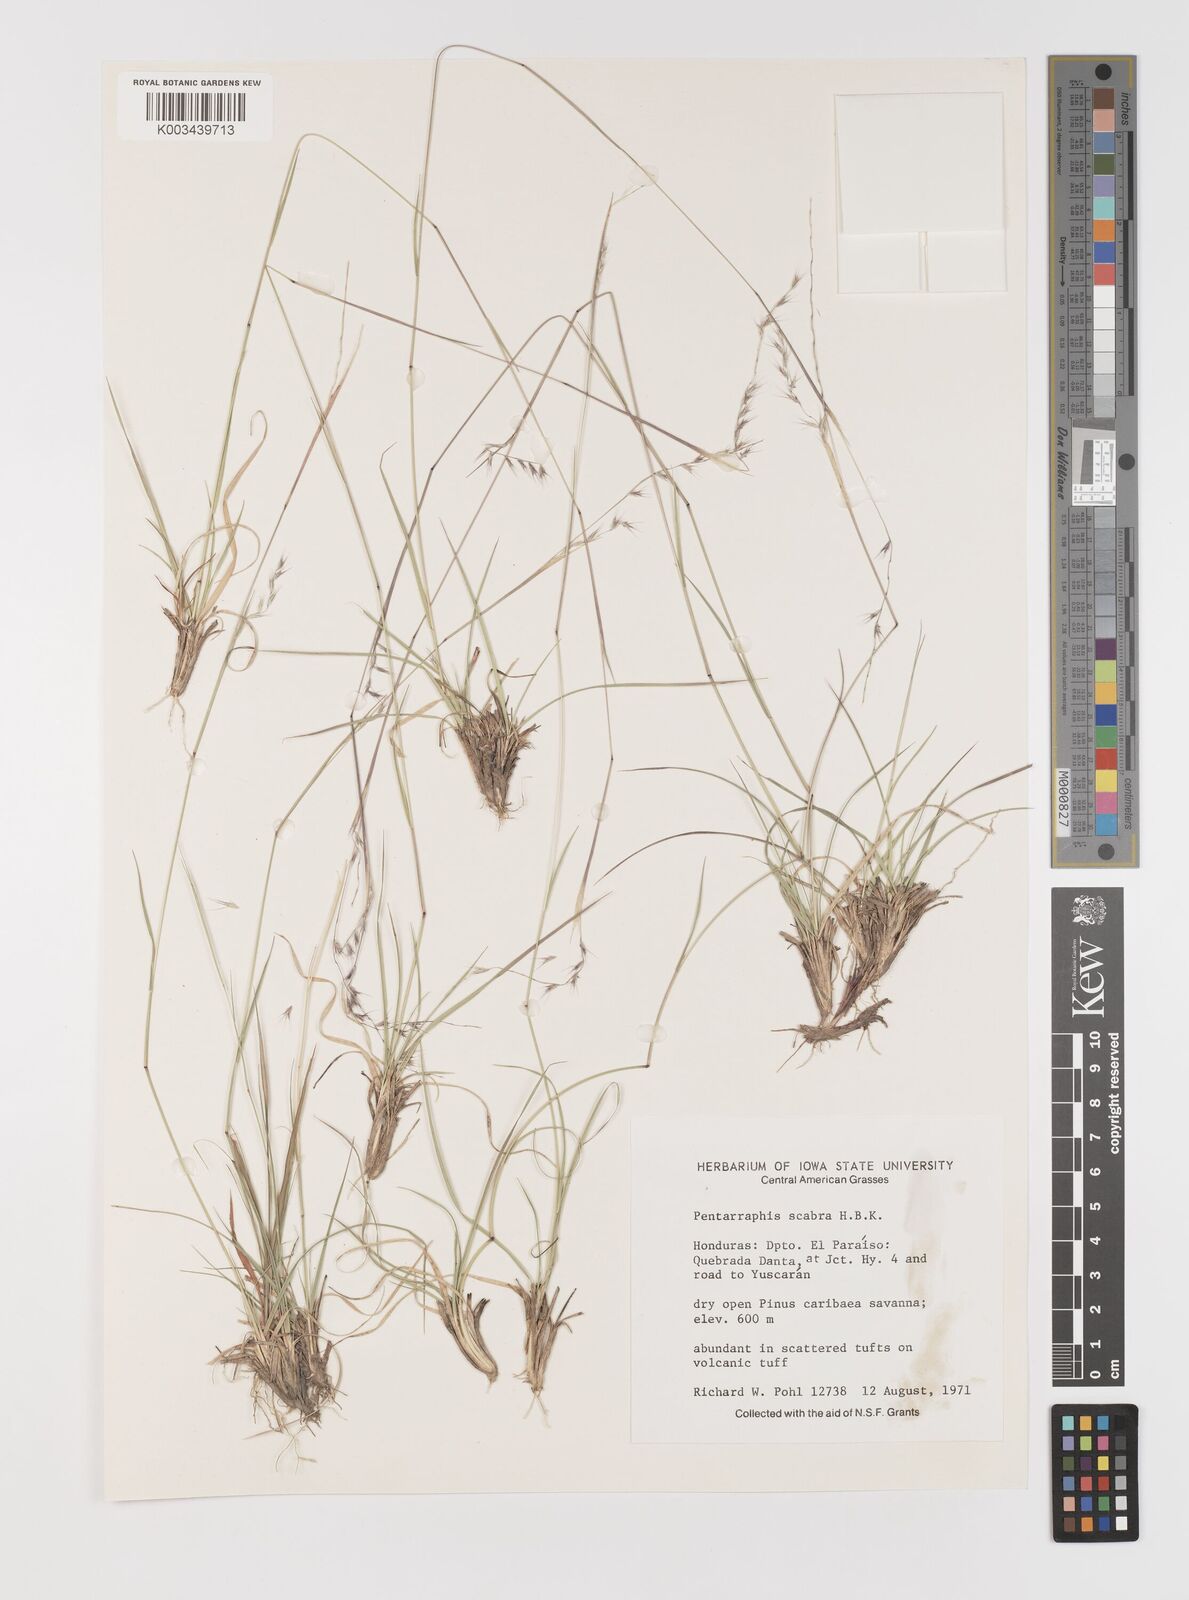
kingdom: Plantae
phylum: Tracheophyta
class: Liliopsida
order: Poales
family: Poaceae
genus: Bouteloua
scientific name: Bouteloua scabra
